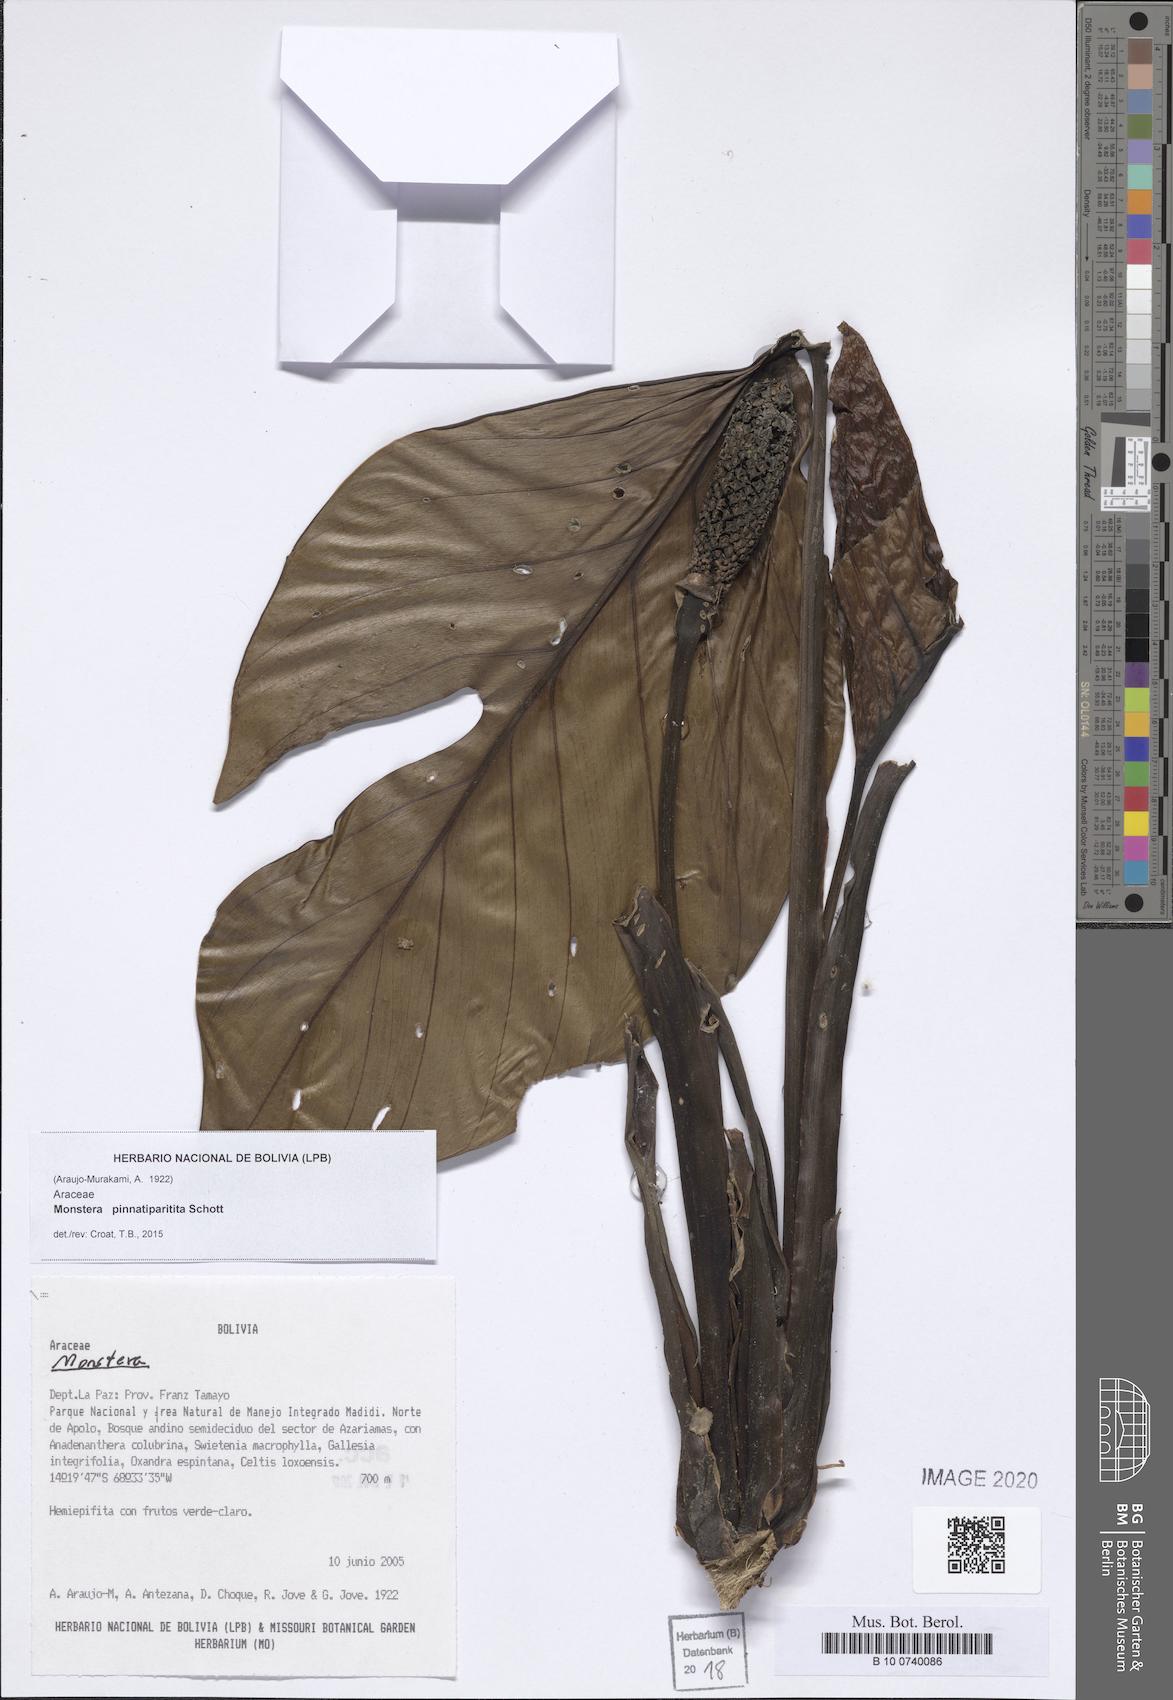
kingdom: Plantae
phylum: Tracheophyta
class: Liliopsida
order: Alismatales
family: Araceae
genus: Monstera
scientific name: Monstera pinnatipartita
